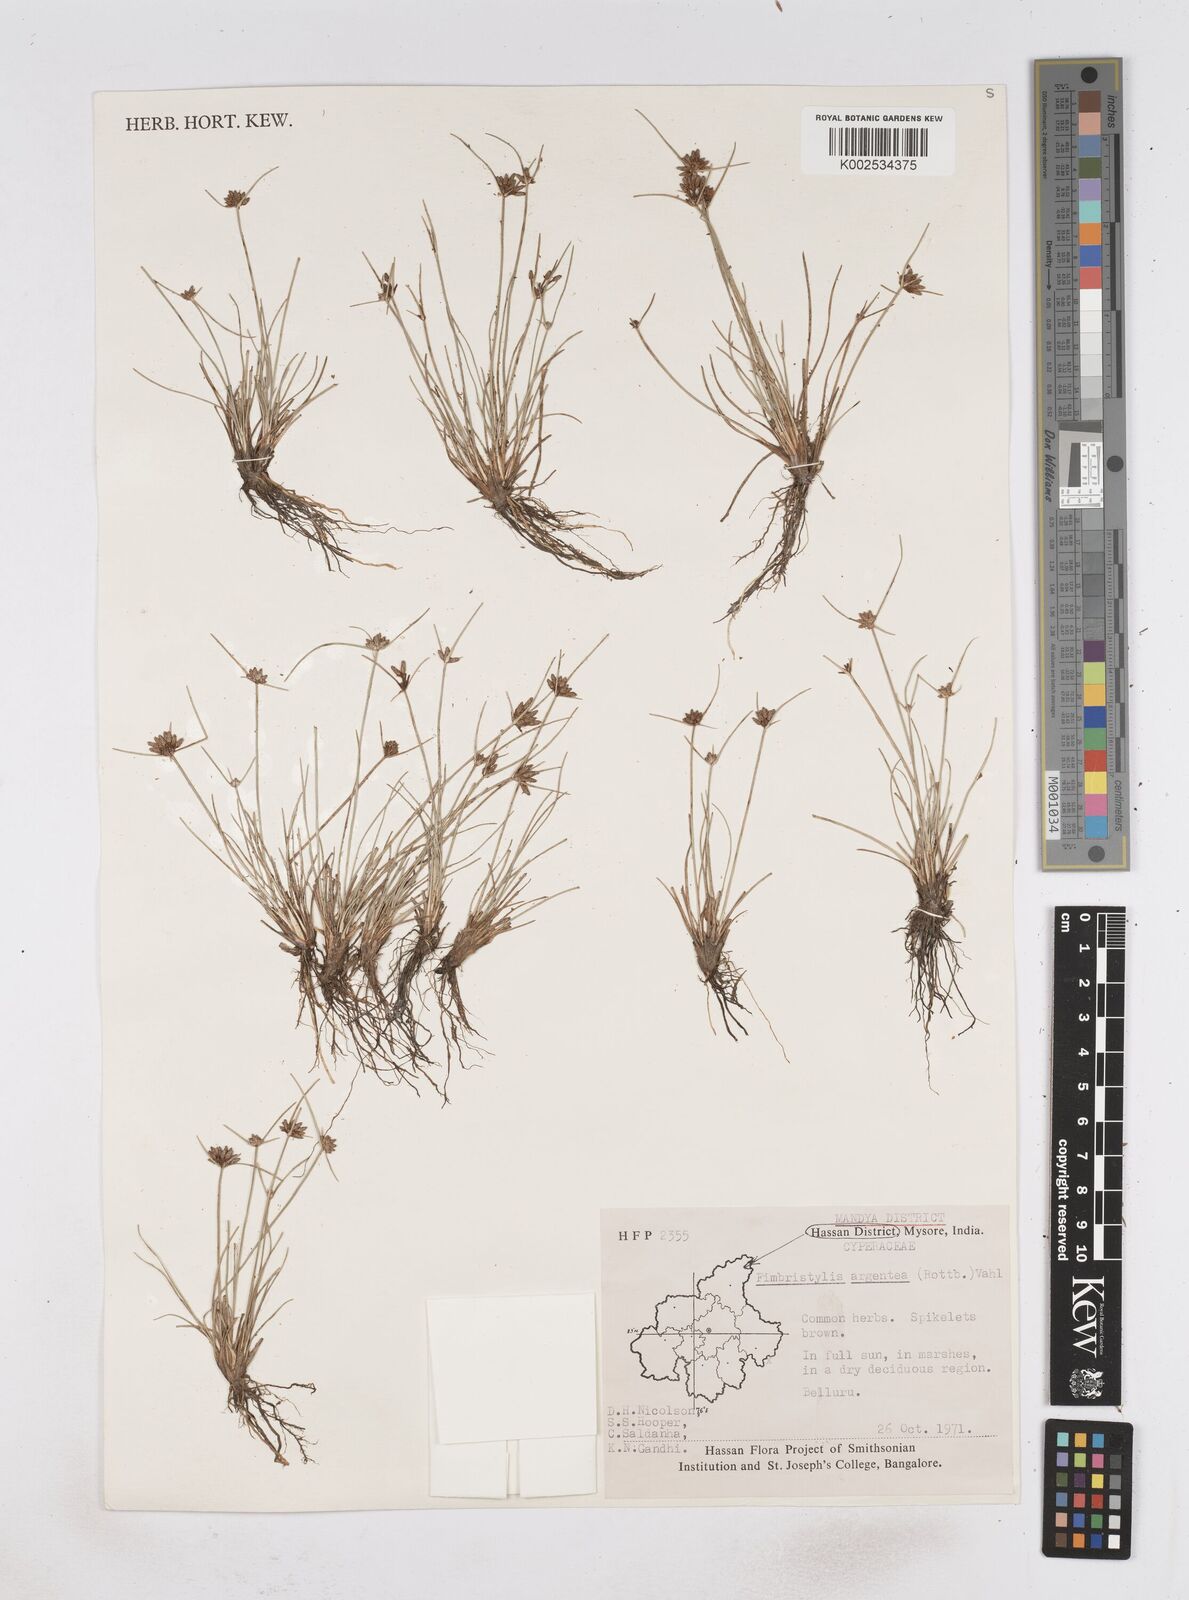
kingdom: Plantae
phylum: Tracheophyta
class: Liliopsida
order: Poales
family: Cyperaceae
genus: Fimbristylis
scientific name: Fimbristylis argentea
